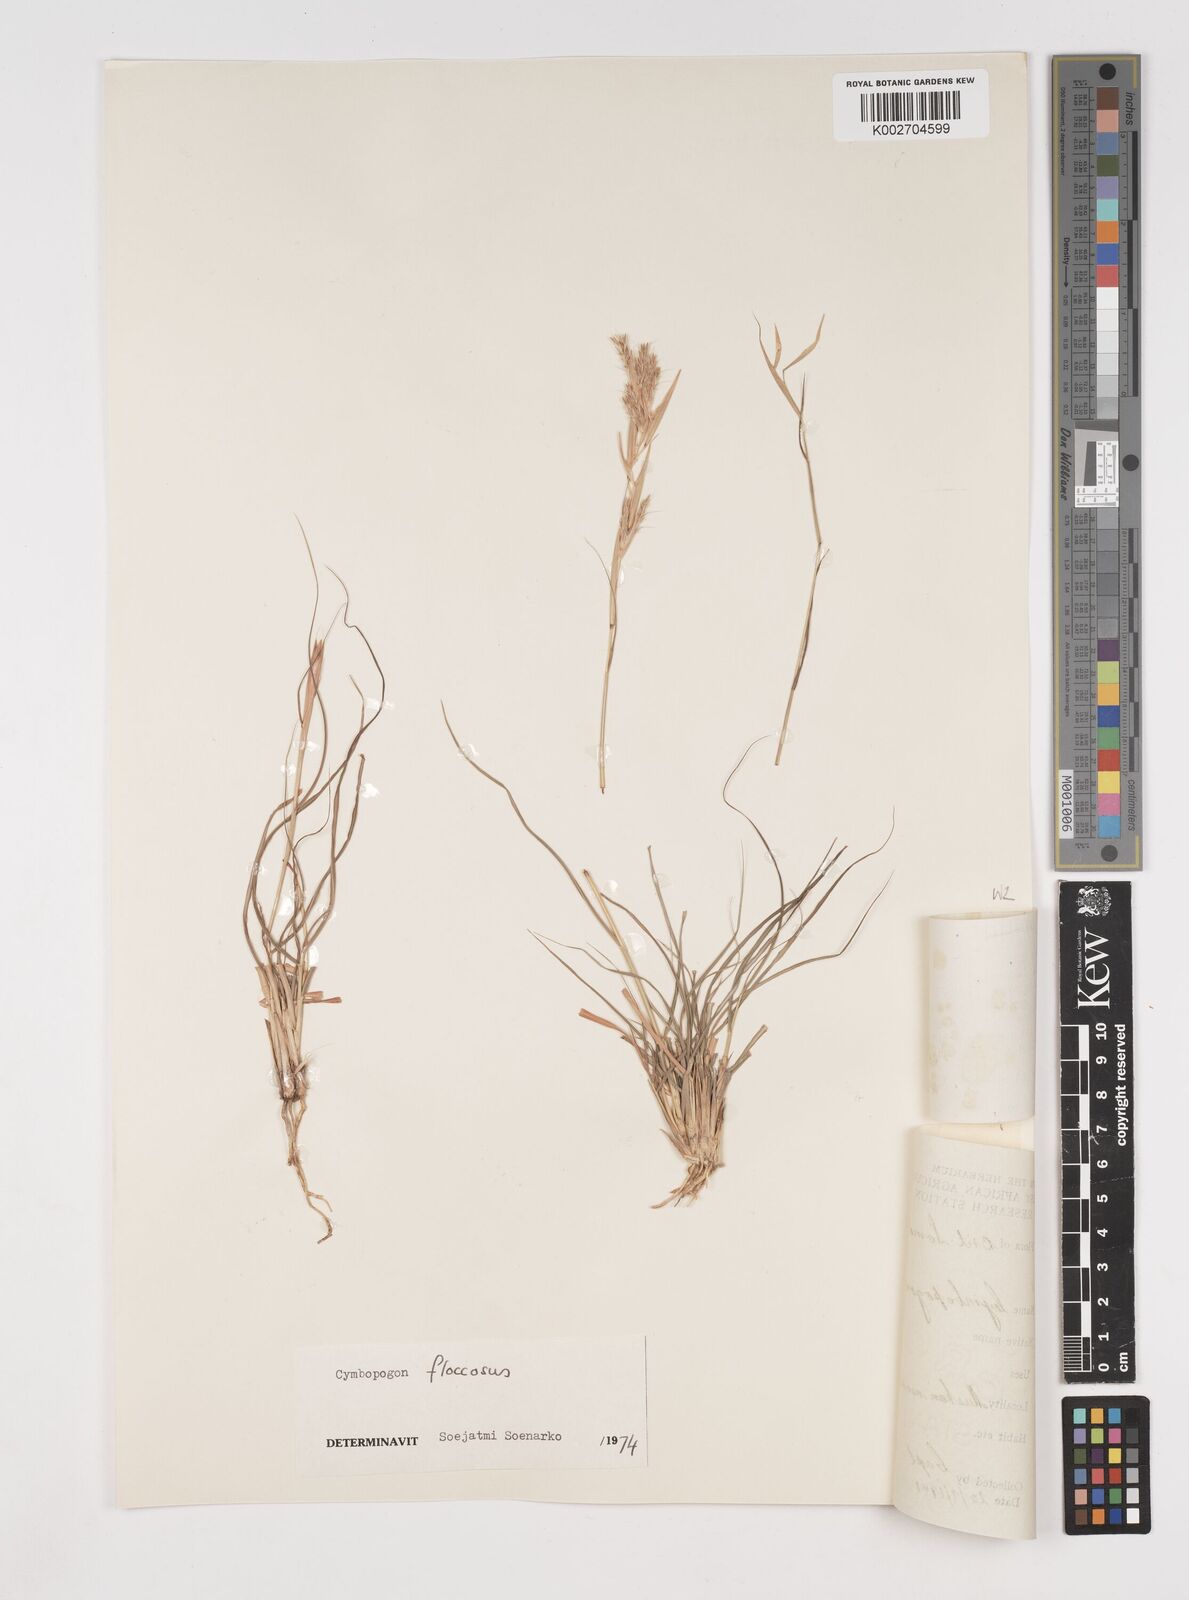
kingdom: Plantae
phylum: Tracheophyta
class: Liliopsida
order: Poales
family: Poaceae
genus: Cymbopogon
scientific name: Cymbopogon commutatus
